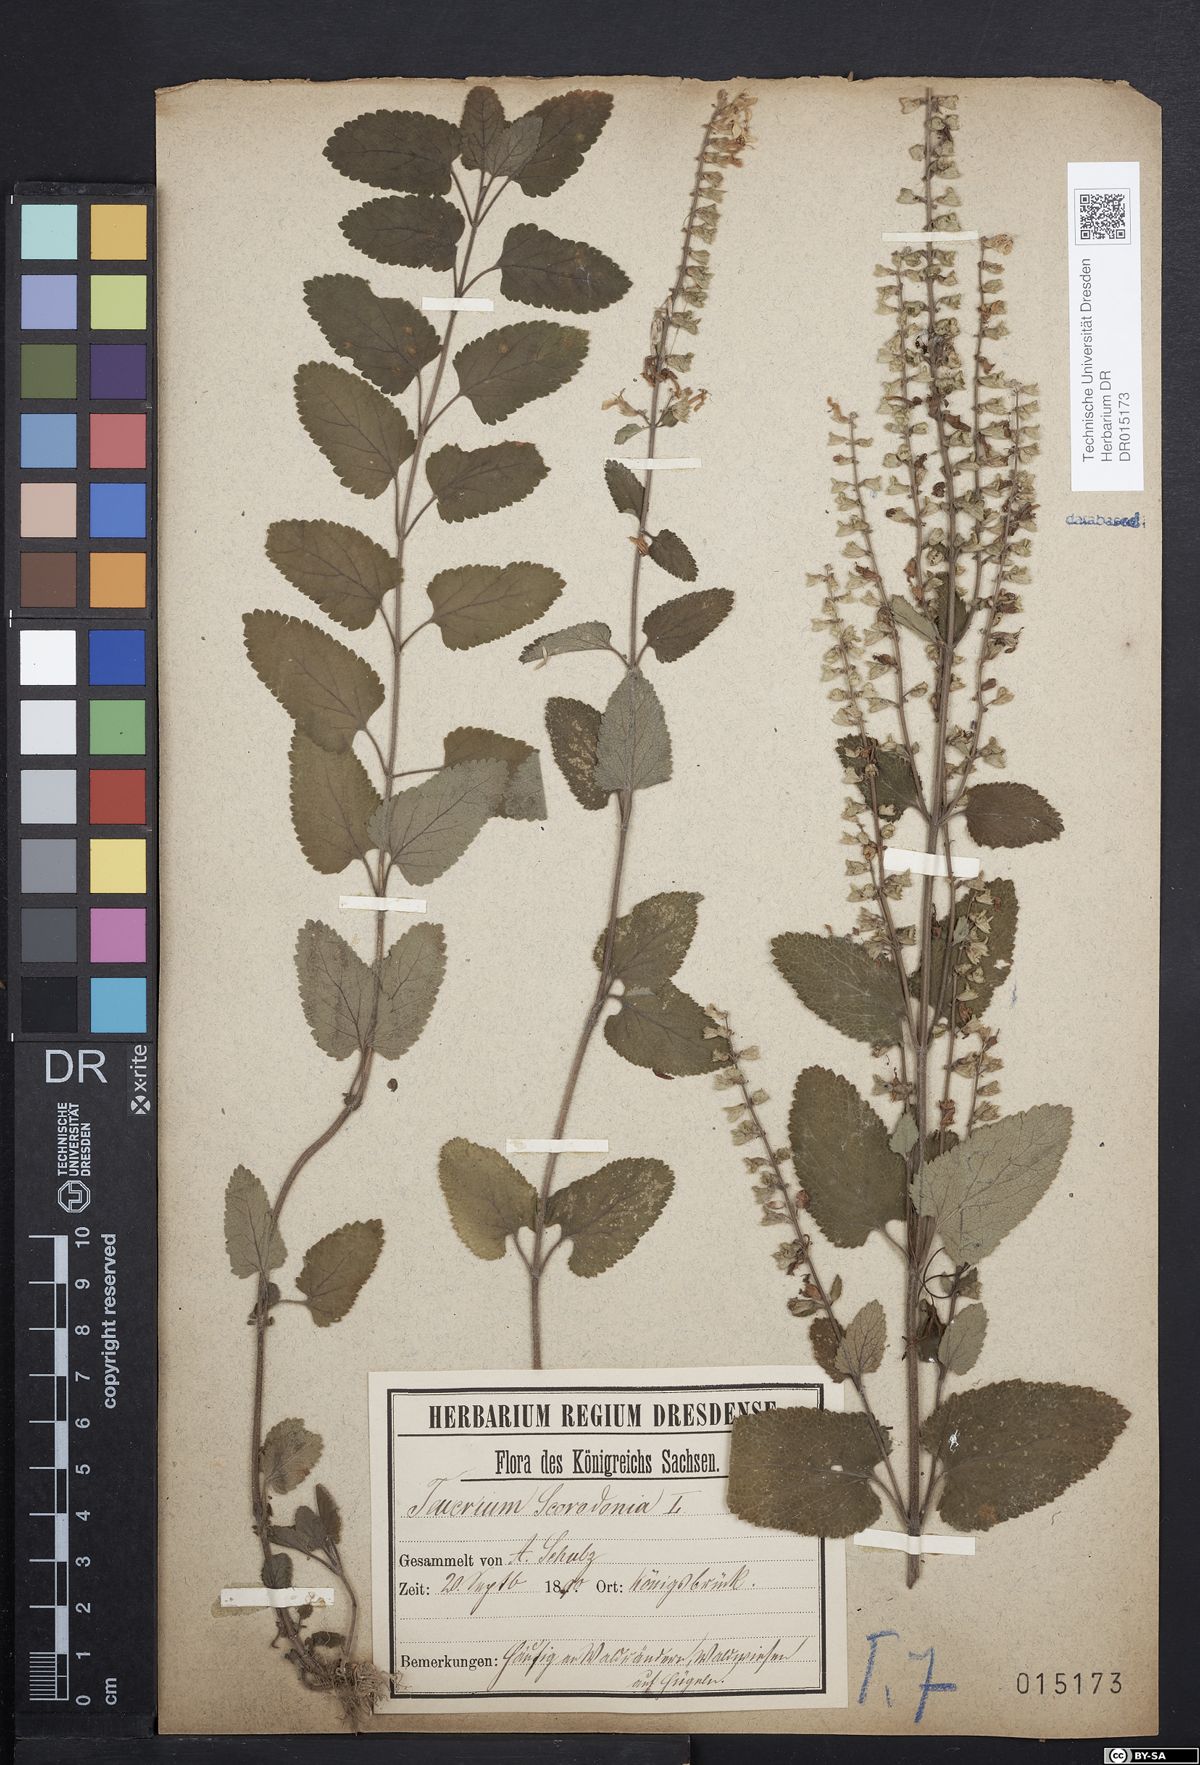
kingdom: Plantae
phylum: Tracheophyta
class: Magnoliopsida
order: Lamiales
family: Lamiaceae
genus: Teucrium
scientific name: Teucrium scorodonia
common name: Woodland germander
